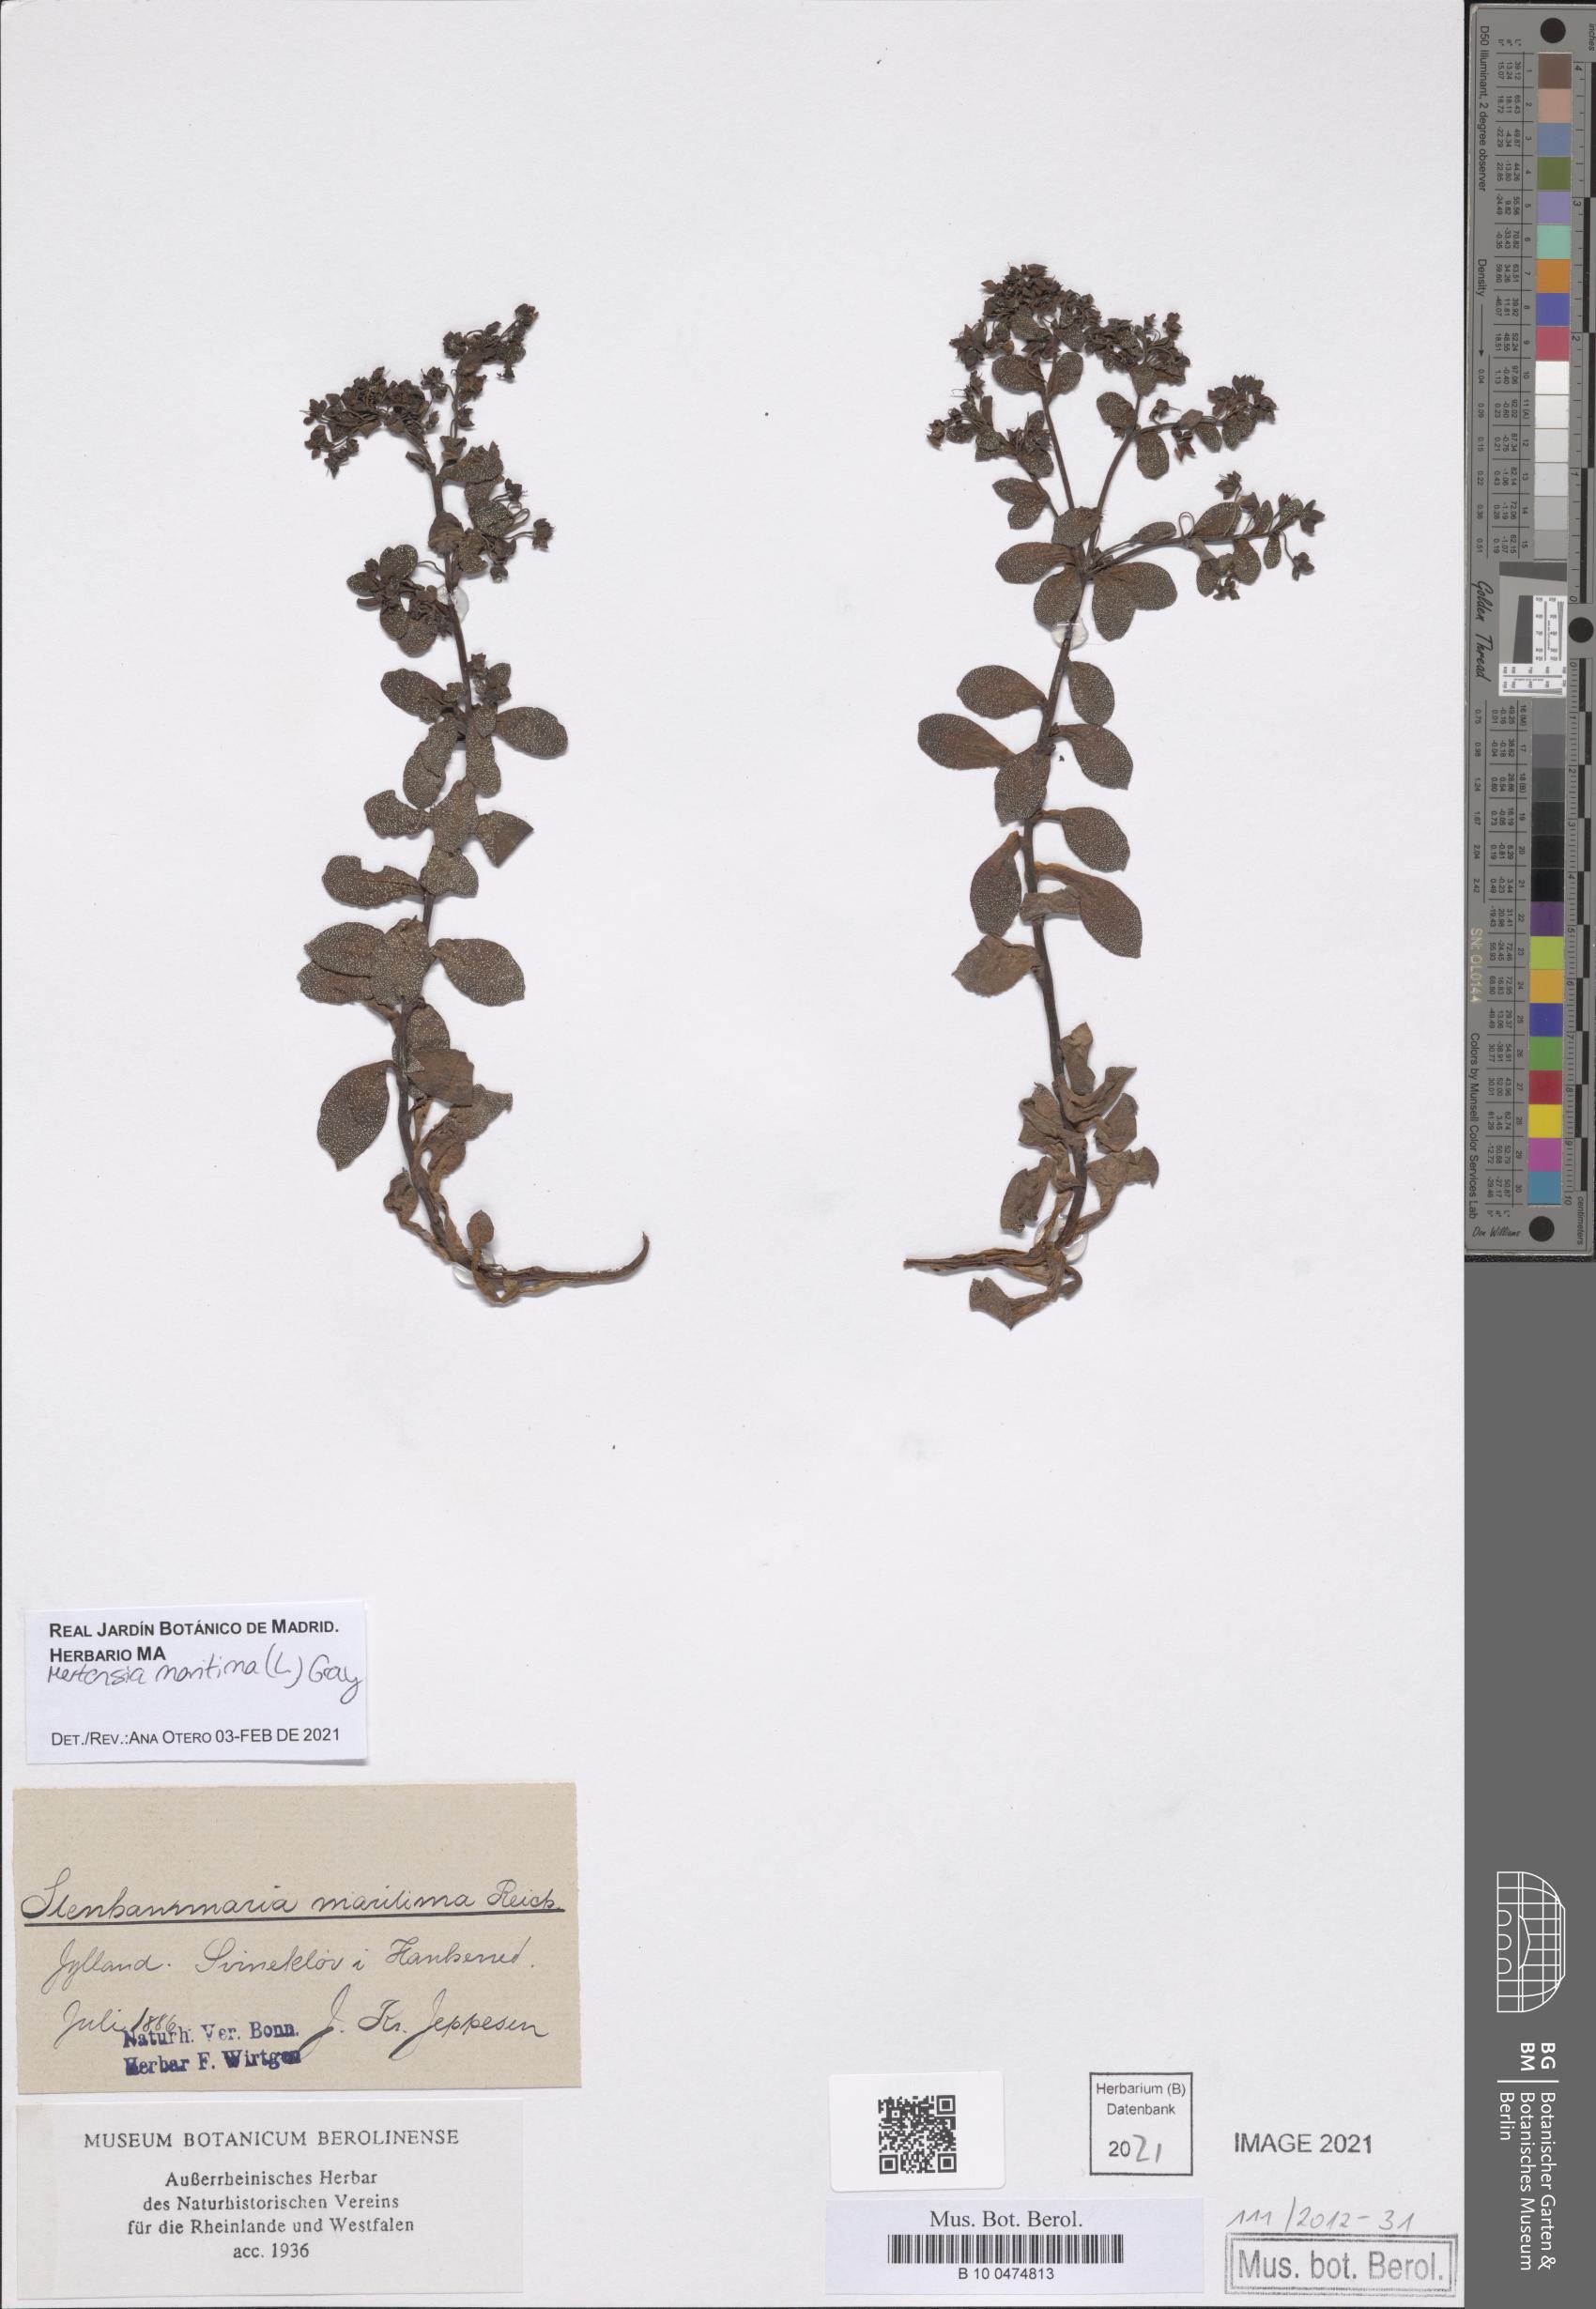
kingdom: Plantae
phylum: Tracheophyta
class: Magnoliopsida
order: Boraginales
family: Boraginaceae
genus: Mertensia
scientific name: Mertensia maritima
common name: Oysterplant
